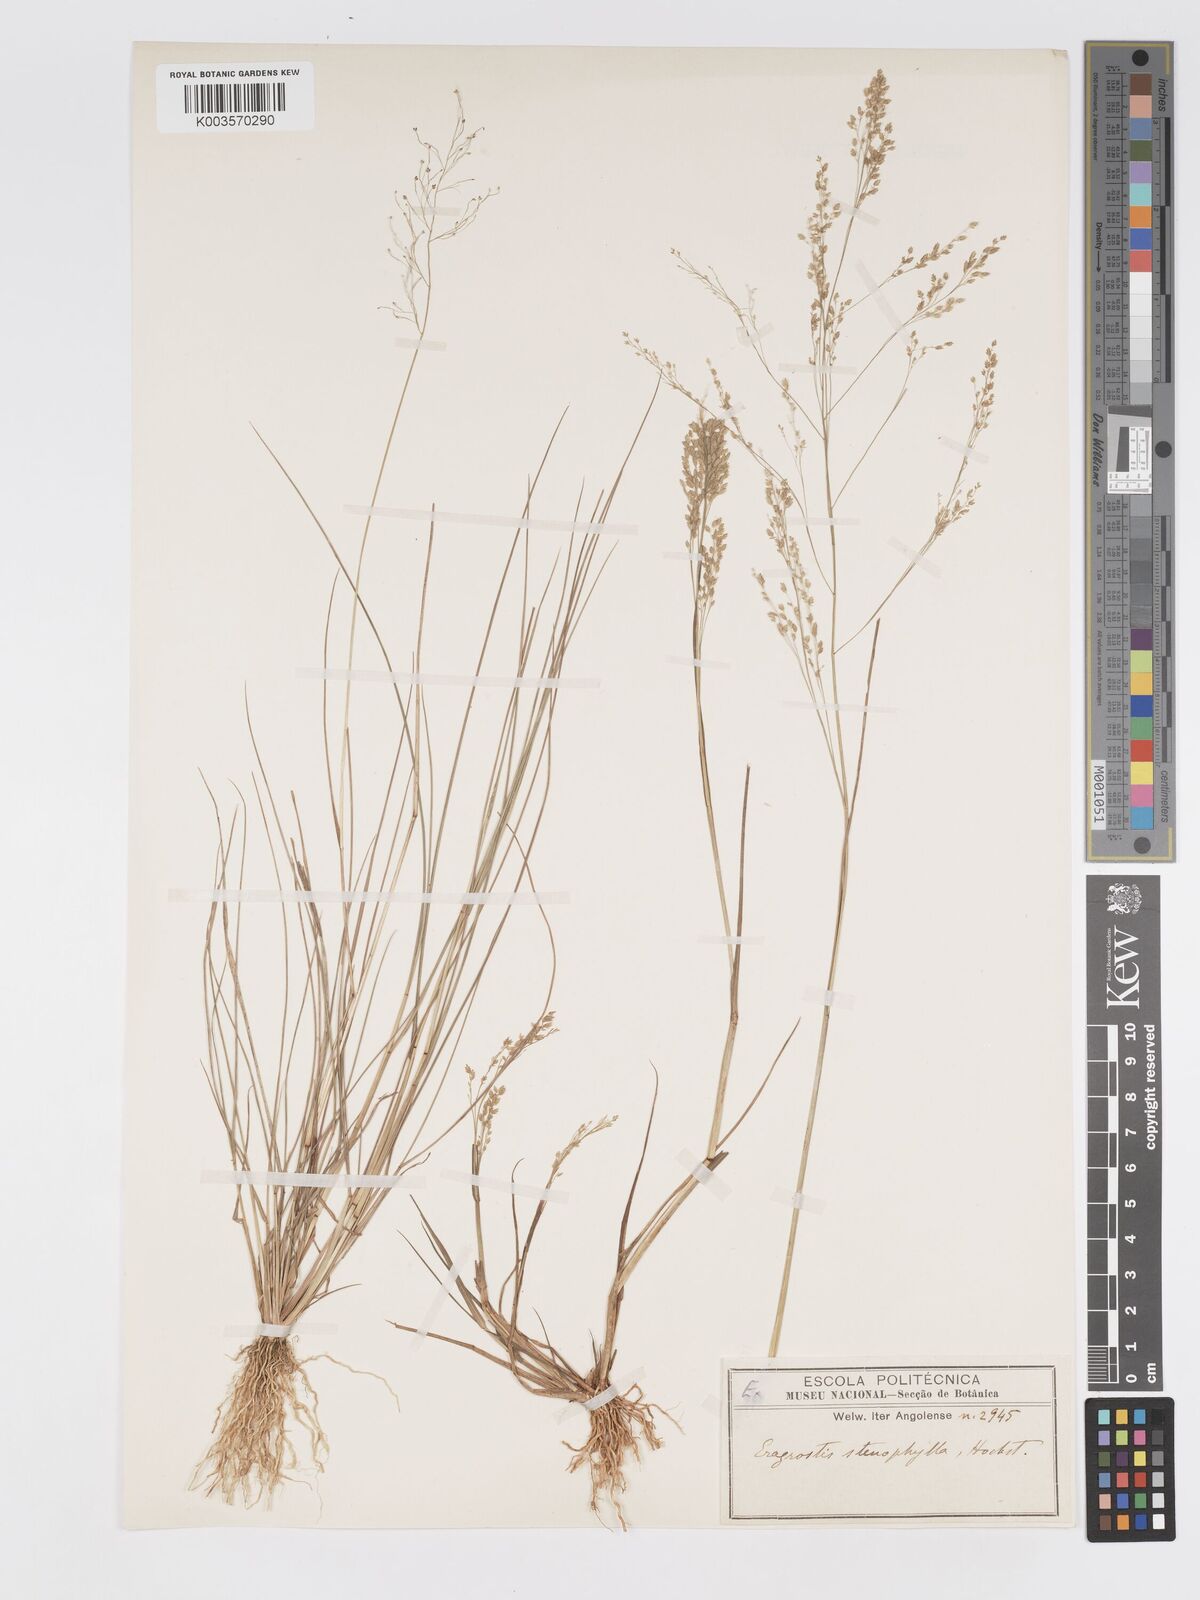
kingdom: Plantae
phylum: Tracheophyta
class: Liliopsida
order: Poales
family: Poaceae
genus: Eragrostis
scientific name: Eragrostis gangetica
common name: Slimflower lovegrass
